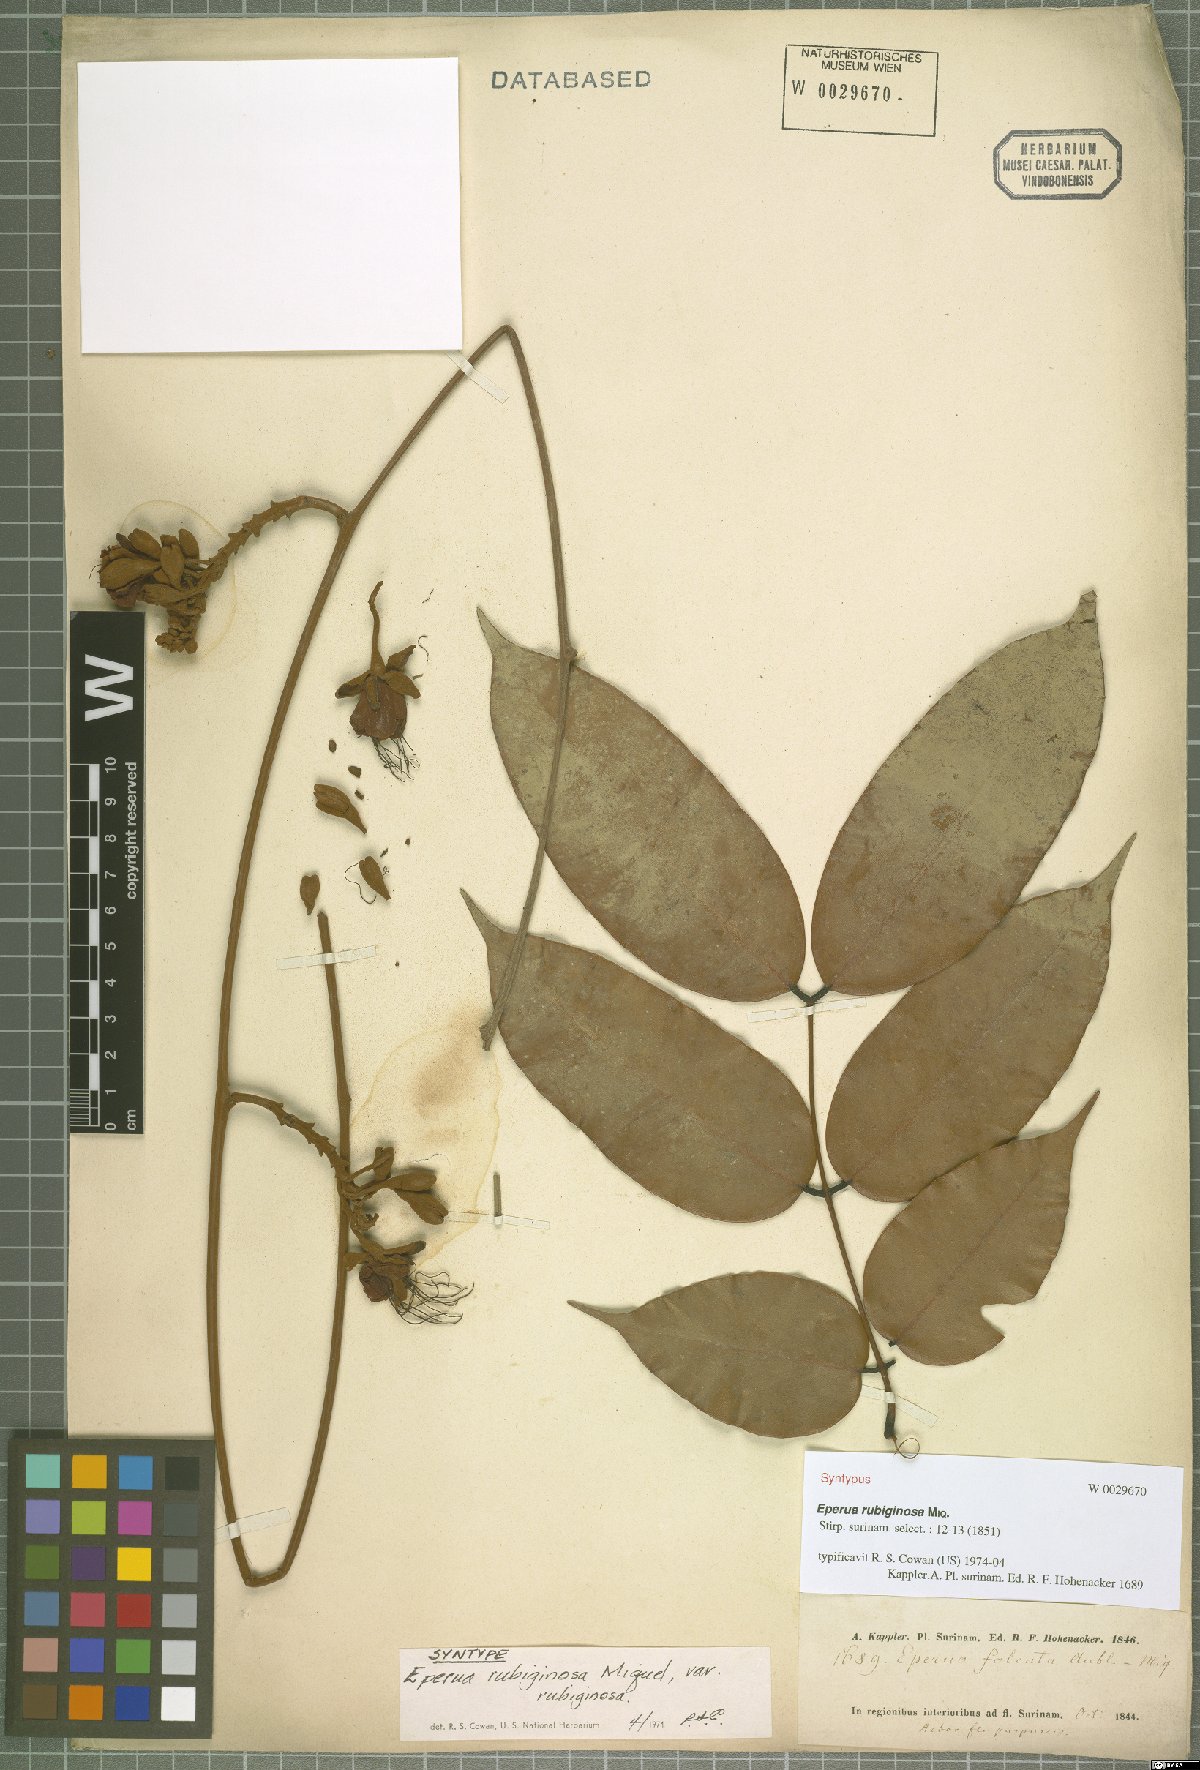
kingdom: Plantae
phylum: Tracheophyta
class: Magnoliopsida
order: Fabales
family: Fabaceae
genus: Eperua
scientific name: Eperua rubiginosa
